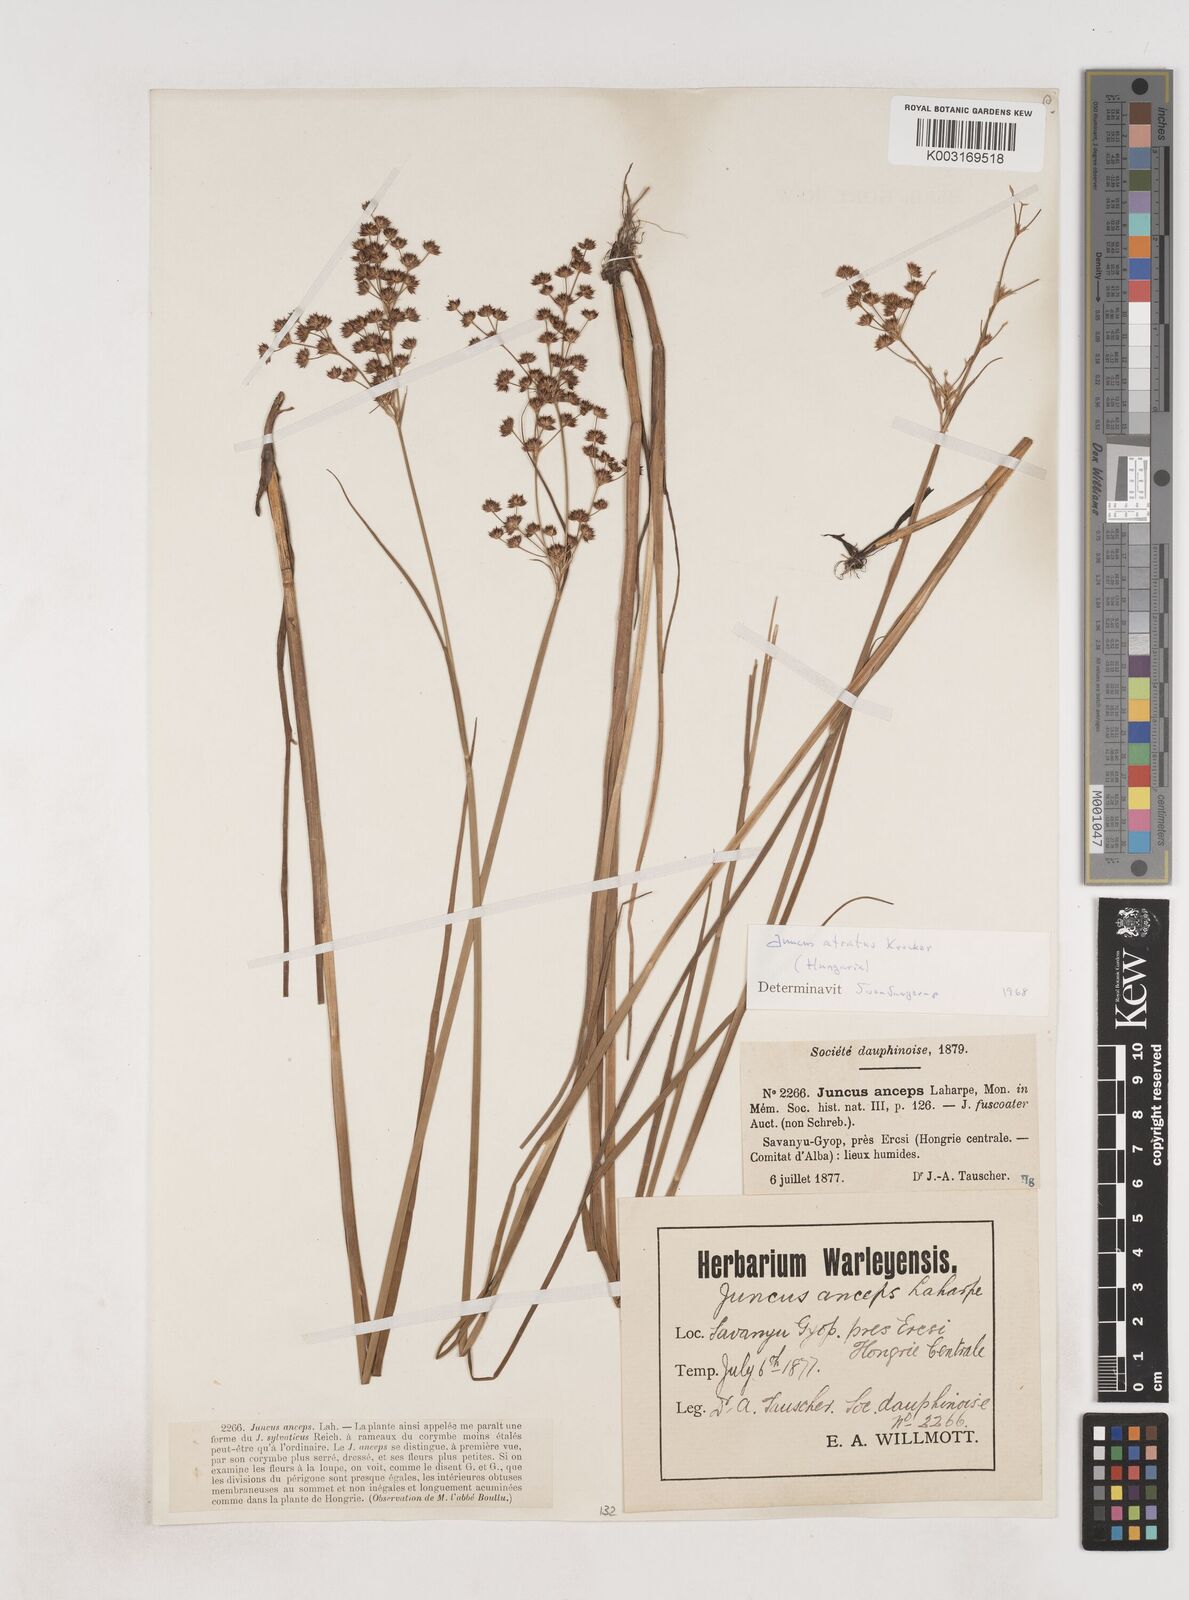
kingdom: Plantae
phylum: Tracheophyta
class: Liliopsida
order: Poales
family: Juncaceae
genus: Juncus
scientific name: Juncus atratus
